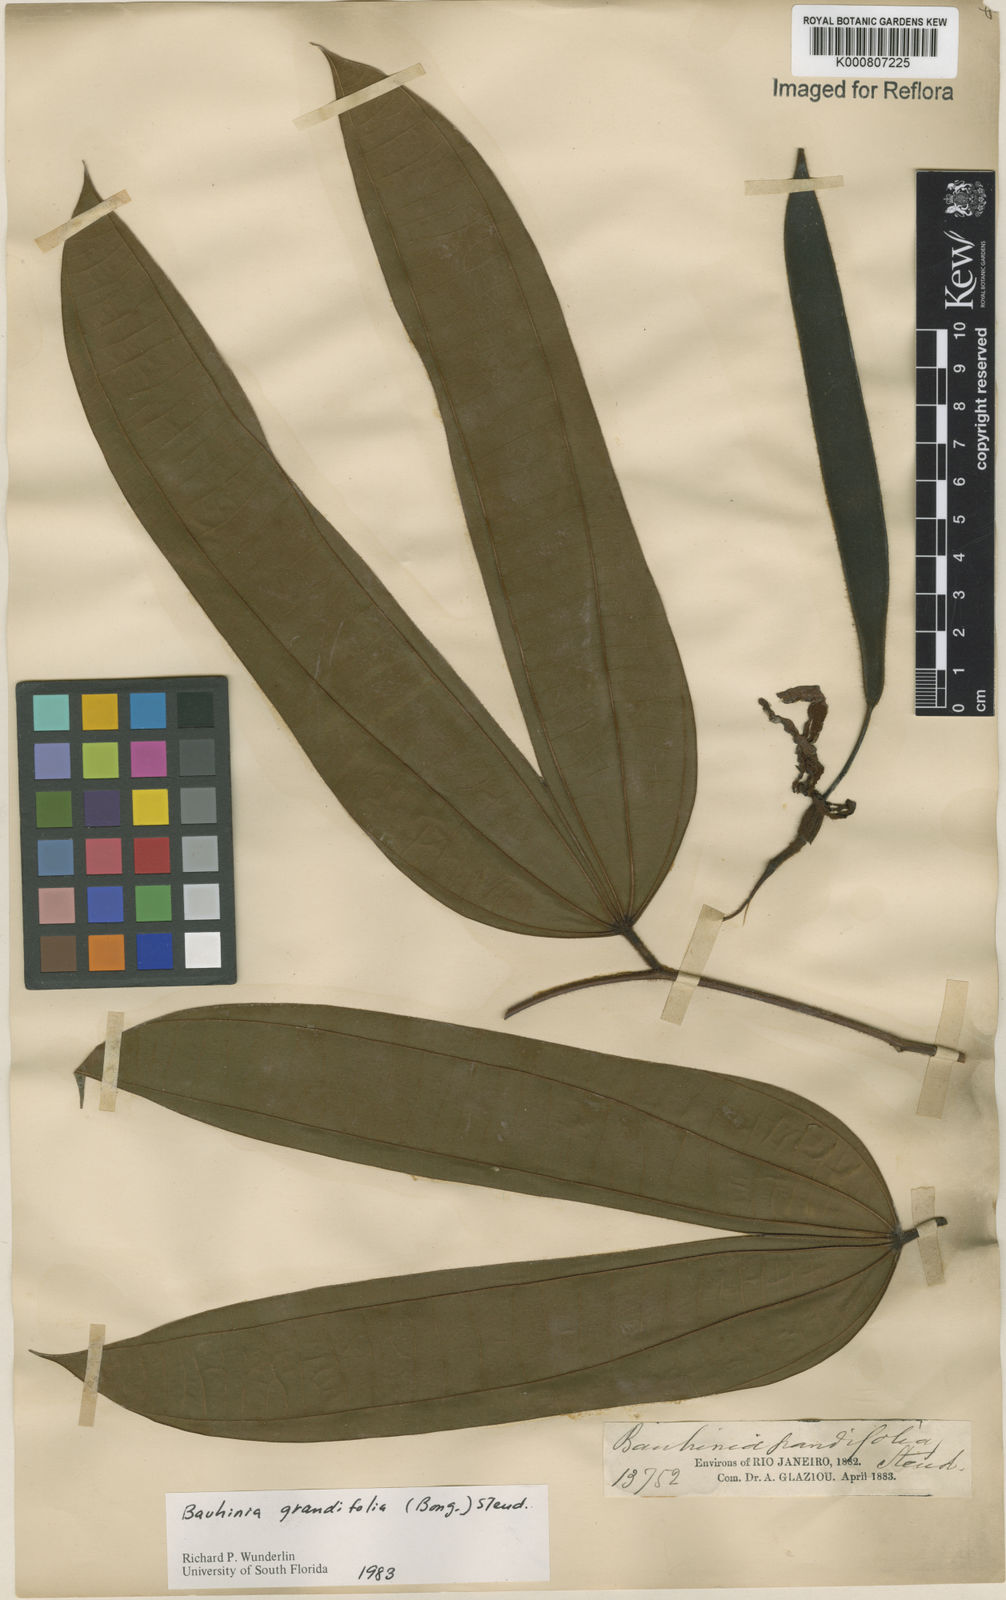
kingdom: Plantae
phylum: Tracheophyta
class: Magnoliopsida
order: Fabales
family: Fabaceae
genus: Bauhinia
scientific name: Bauhinia
